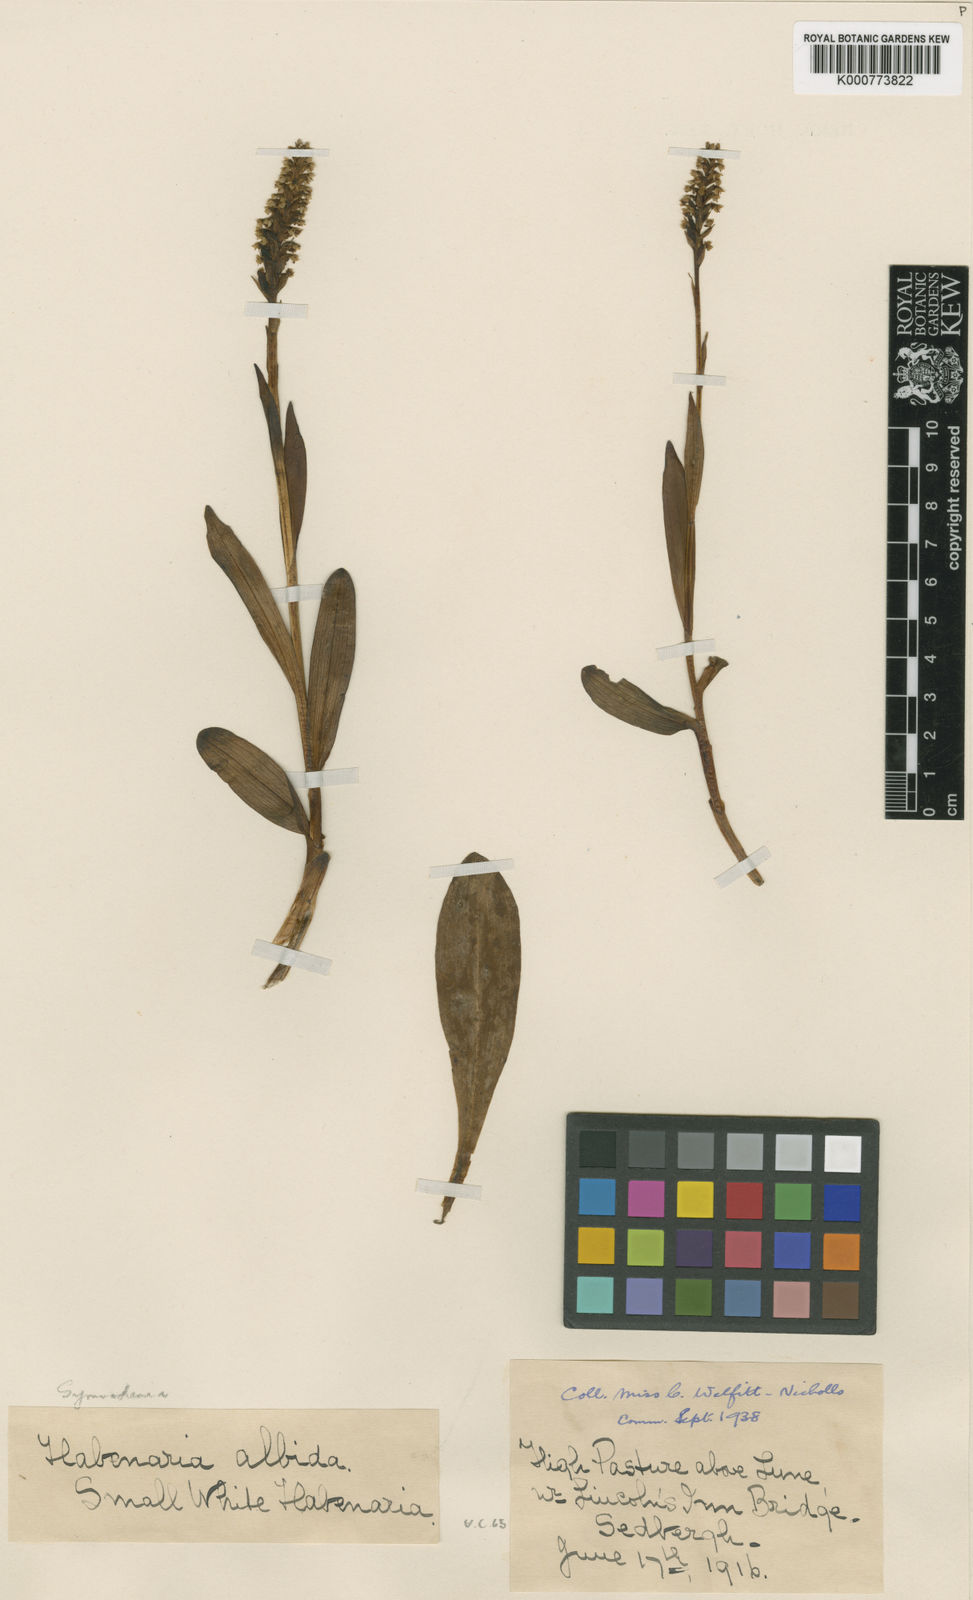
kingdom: Plantae
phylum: Tracheophyta
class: Liliopsida
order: Asparagales
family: Orchidaceae
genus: Pseudorchis
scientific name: Pseudorchis
